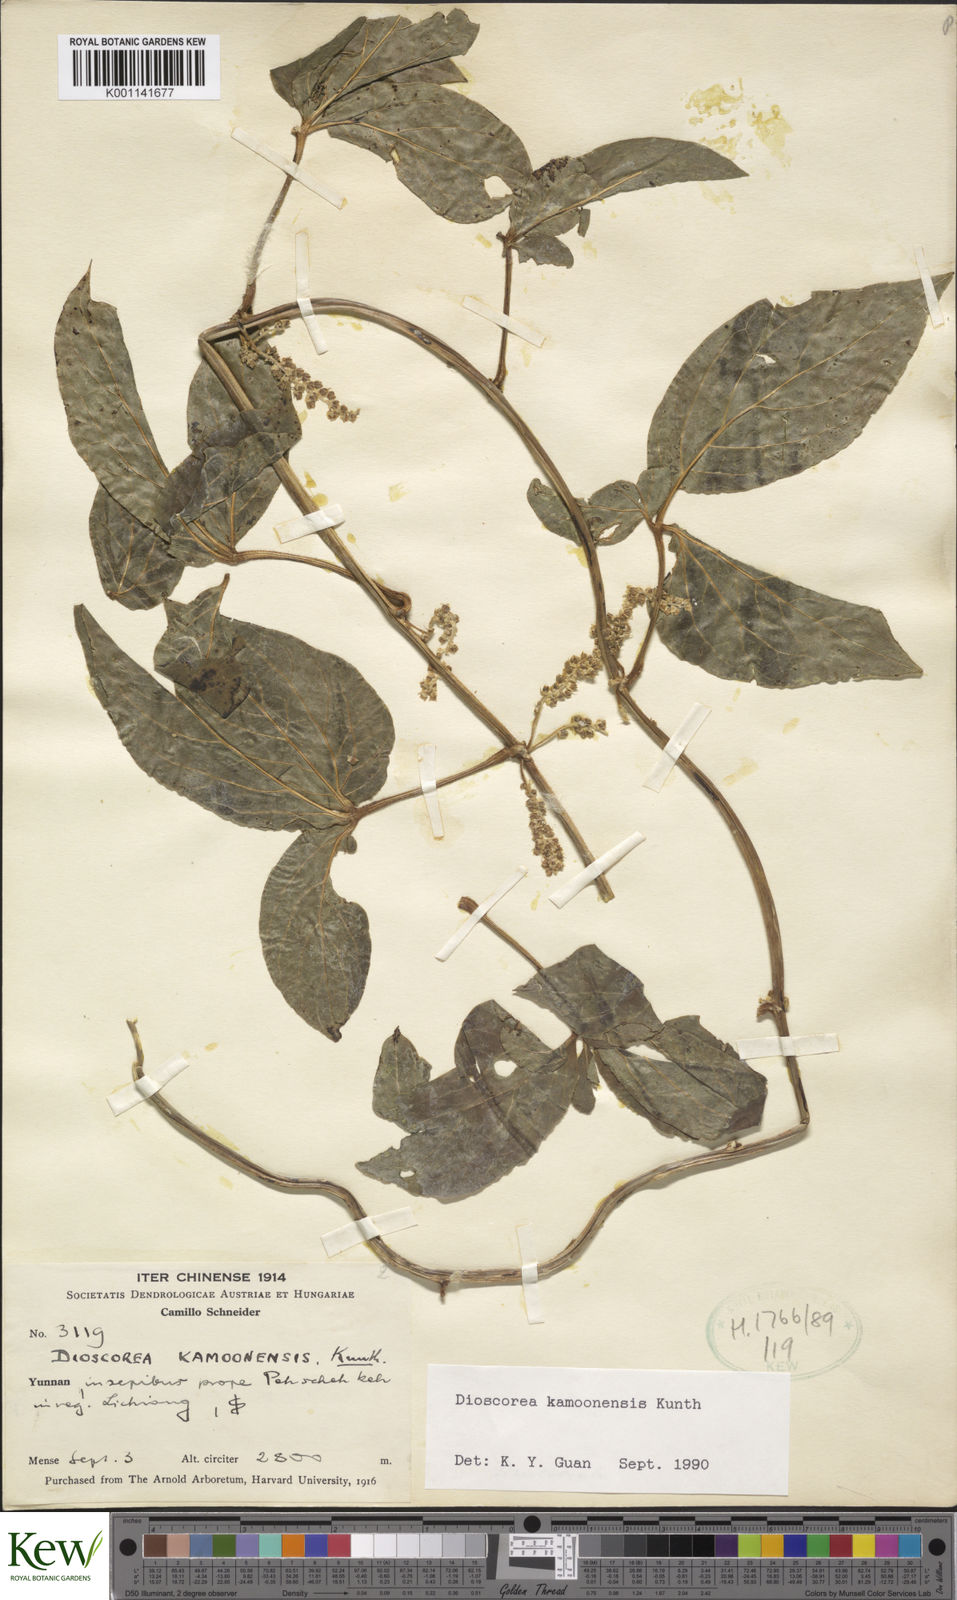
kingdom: Plantae
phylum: Tracheophyta
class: Liliopsida
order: Dioscoreales
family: Dioscoreaceae
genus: Dioscorea
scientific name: Dioscorea kamoonensis
